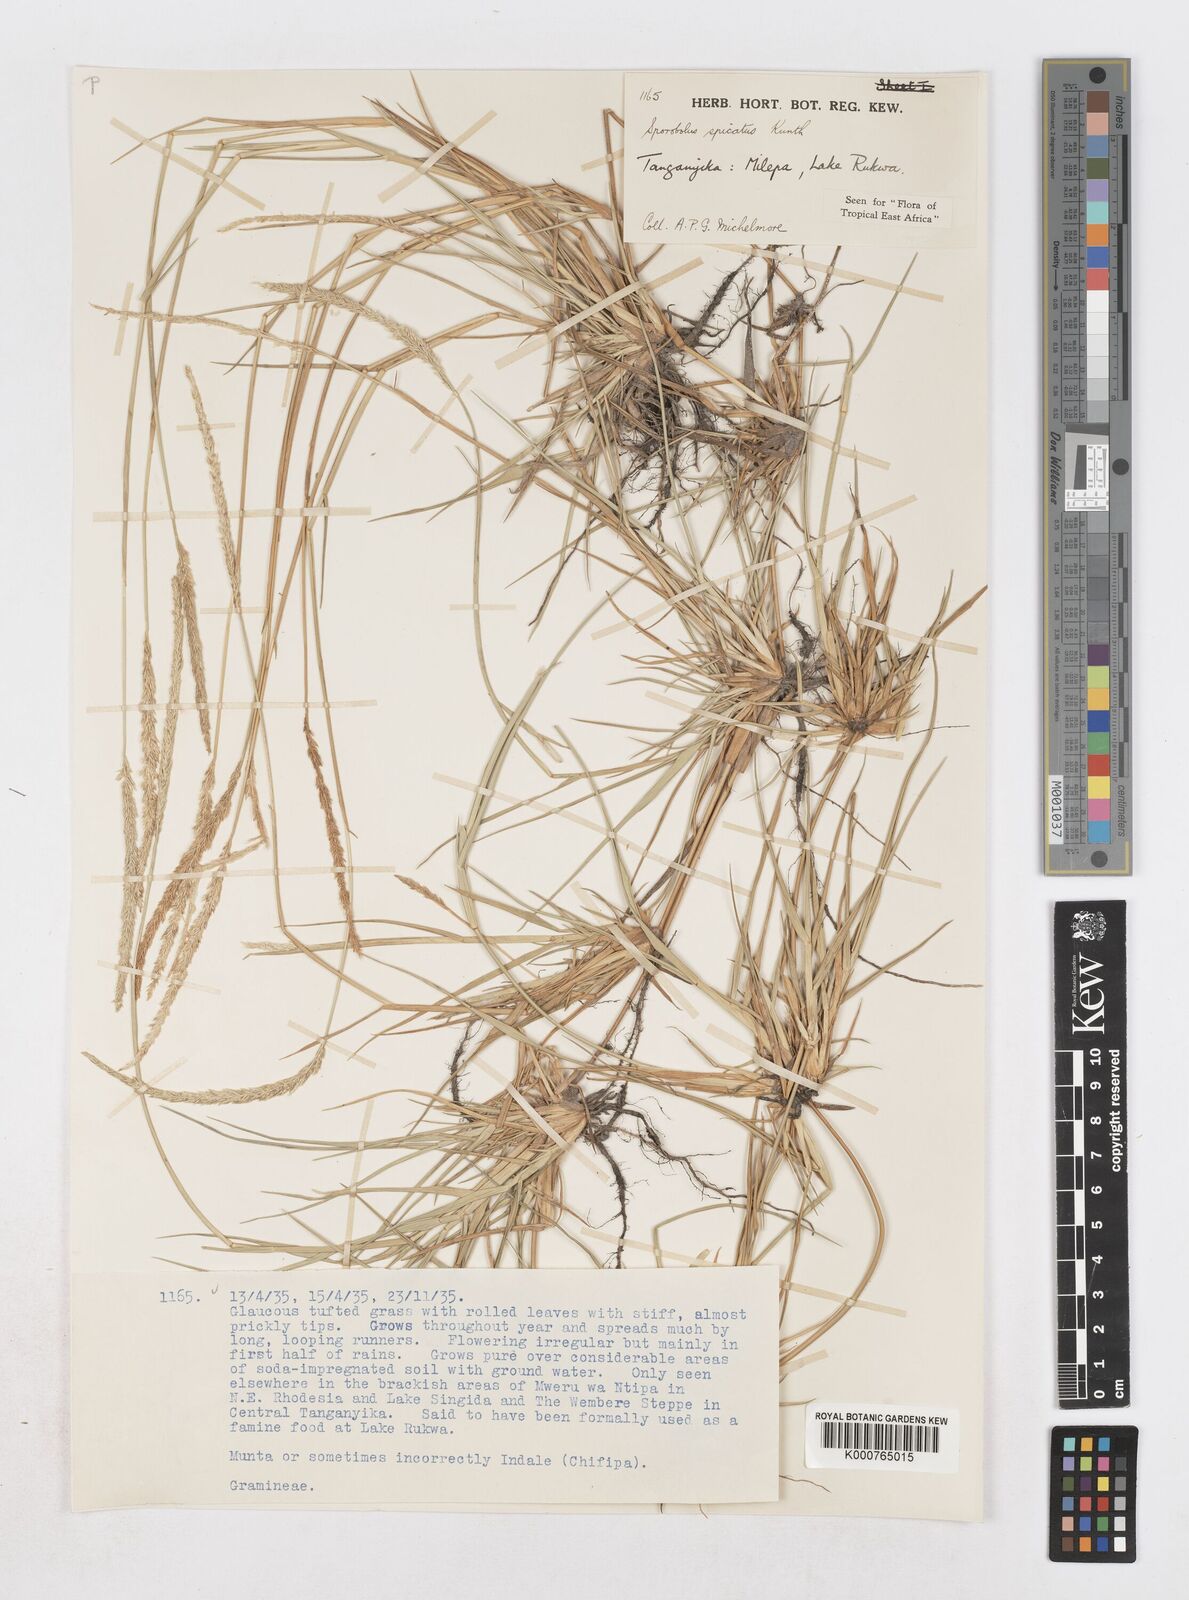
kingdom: Plantae
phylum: Tracheophyta
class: Liliopsida
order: Poales
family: Poaceae
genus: Sporobolus
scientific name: Sporobolus spicatus
